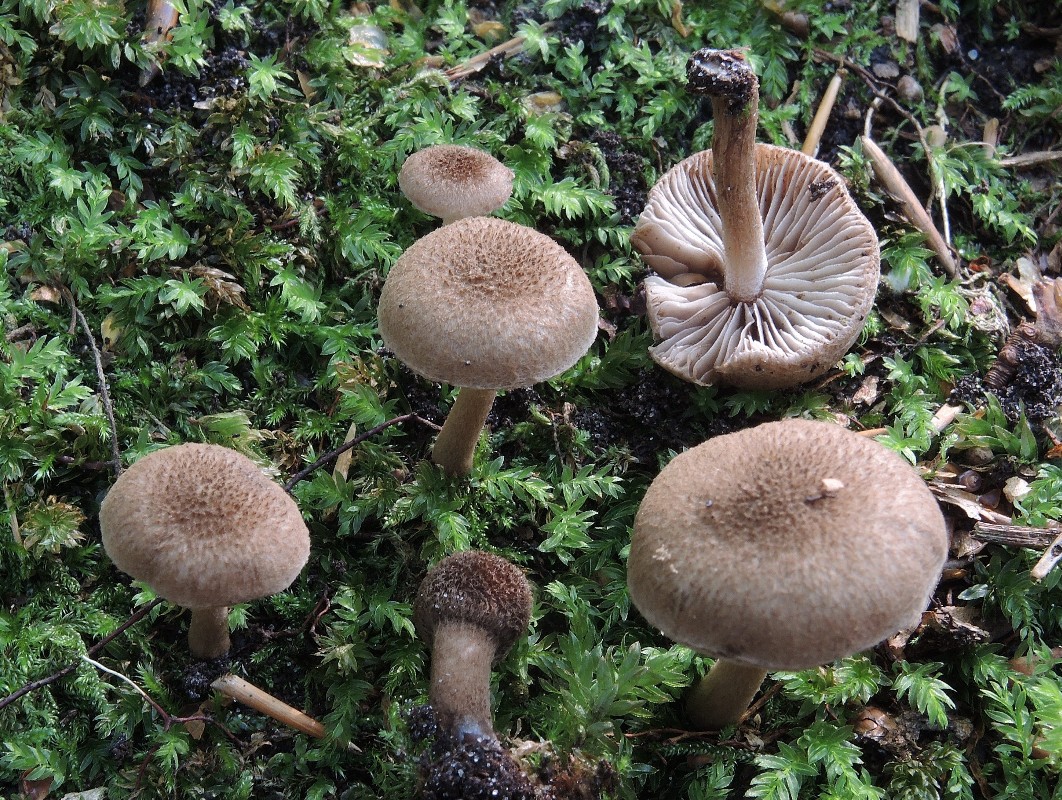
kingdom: Fungi
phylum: Basidiomycota
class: Agaricomycetes
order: Agaricales
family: Inocybaceae
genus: Inocybe
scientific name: Inocybe lanuginosa
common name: uldskællet trævlhat
